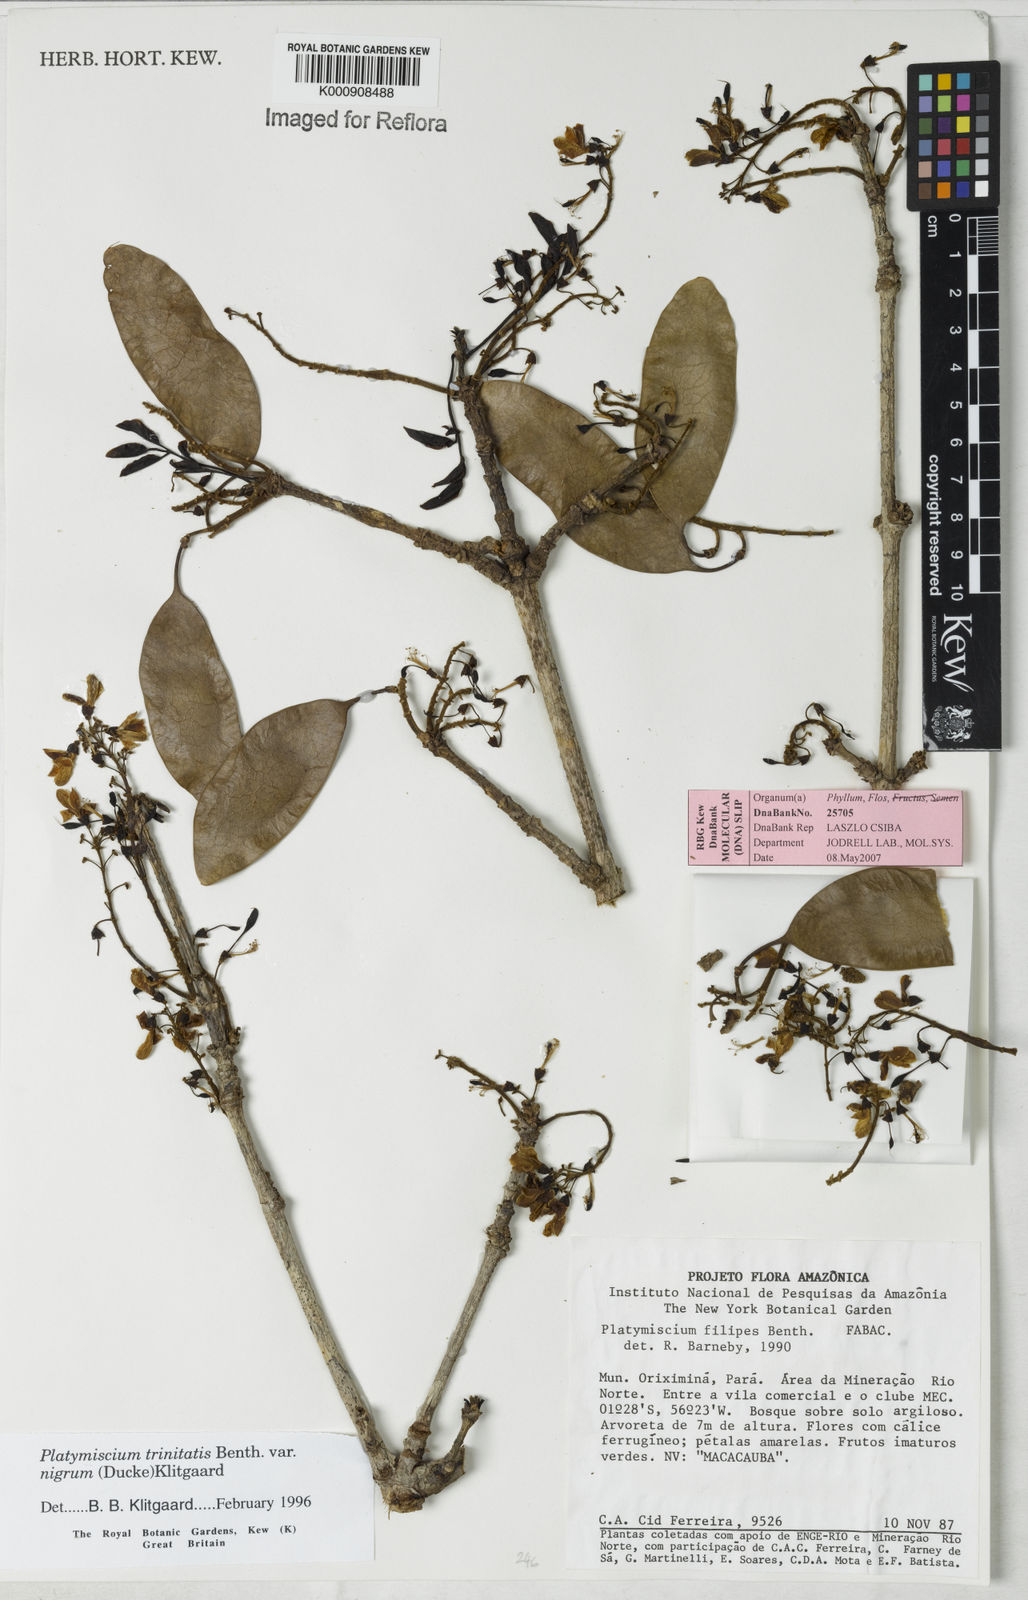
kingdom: Plantae
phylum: Tracheophyta
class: Magnoliopsida
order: Fabales
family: Fabaceae
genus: Platymiscium
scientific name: Platymiscium trinitatis
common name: Trinidad macawood
